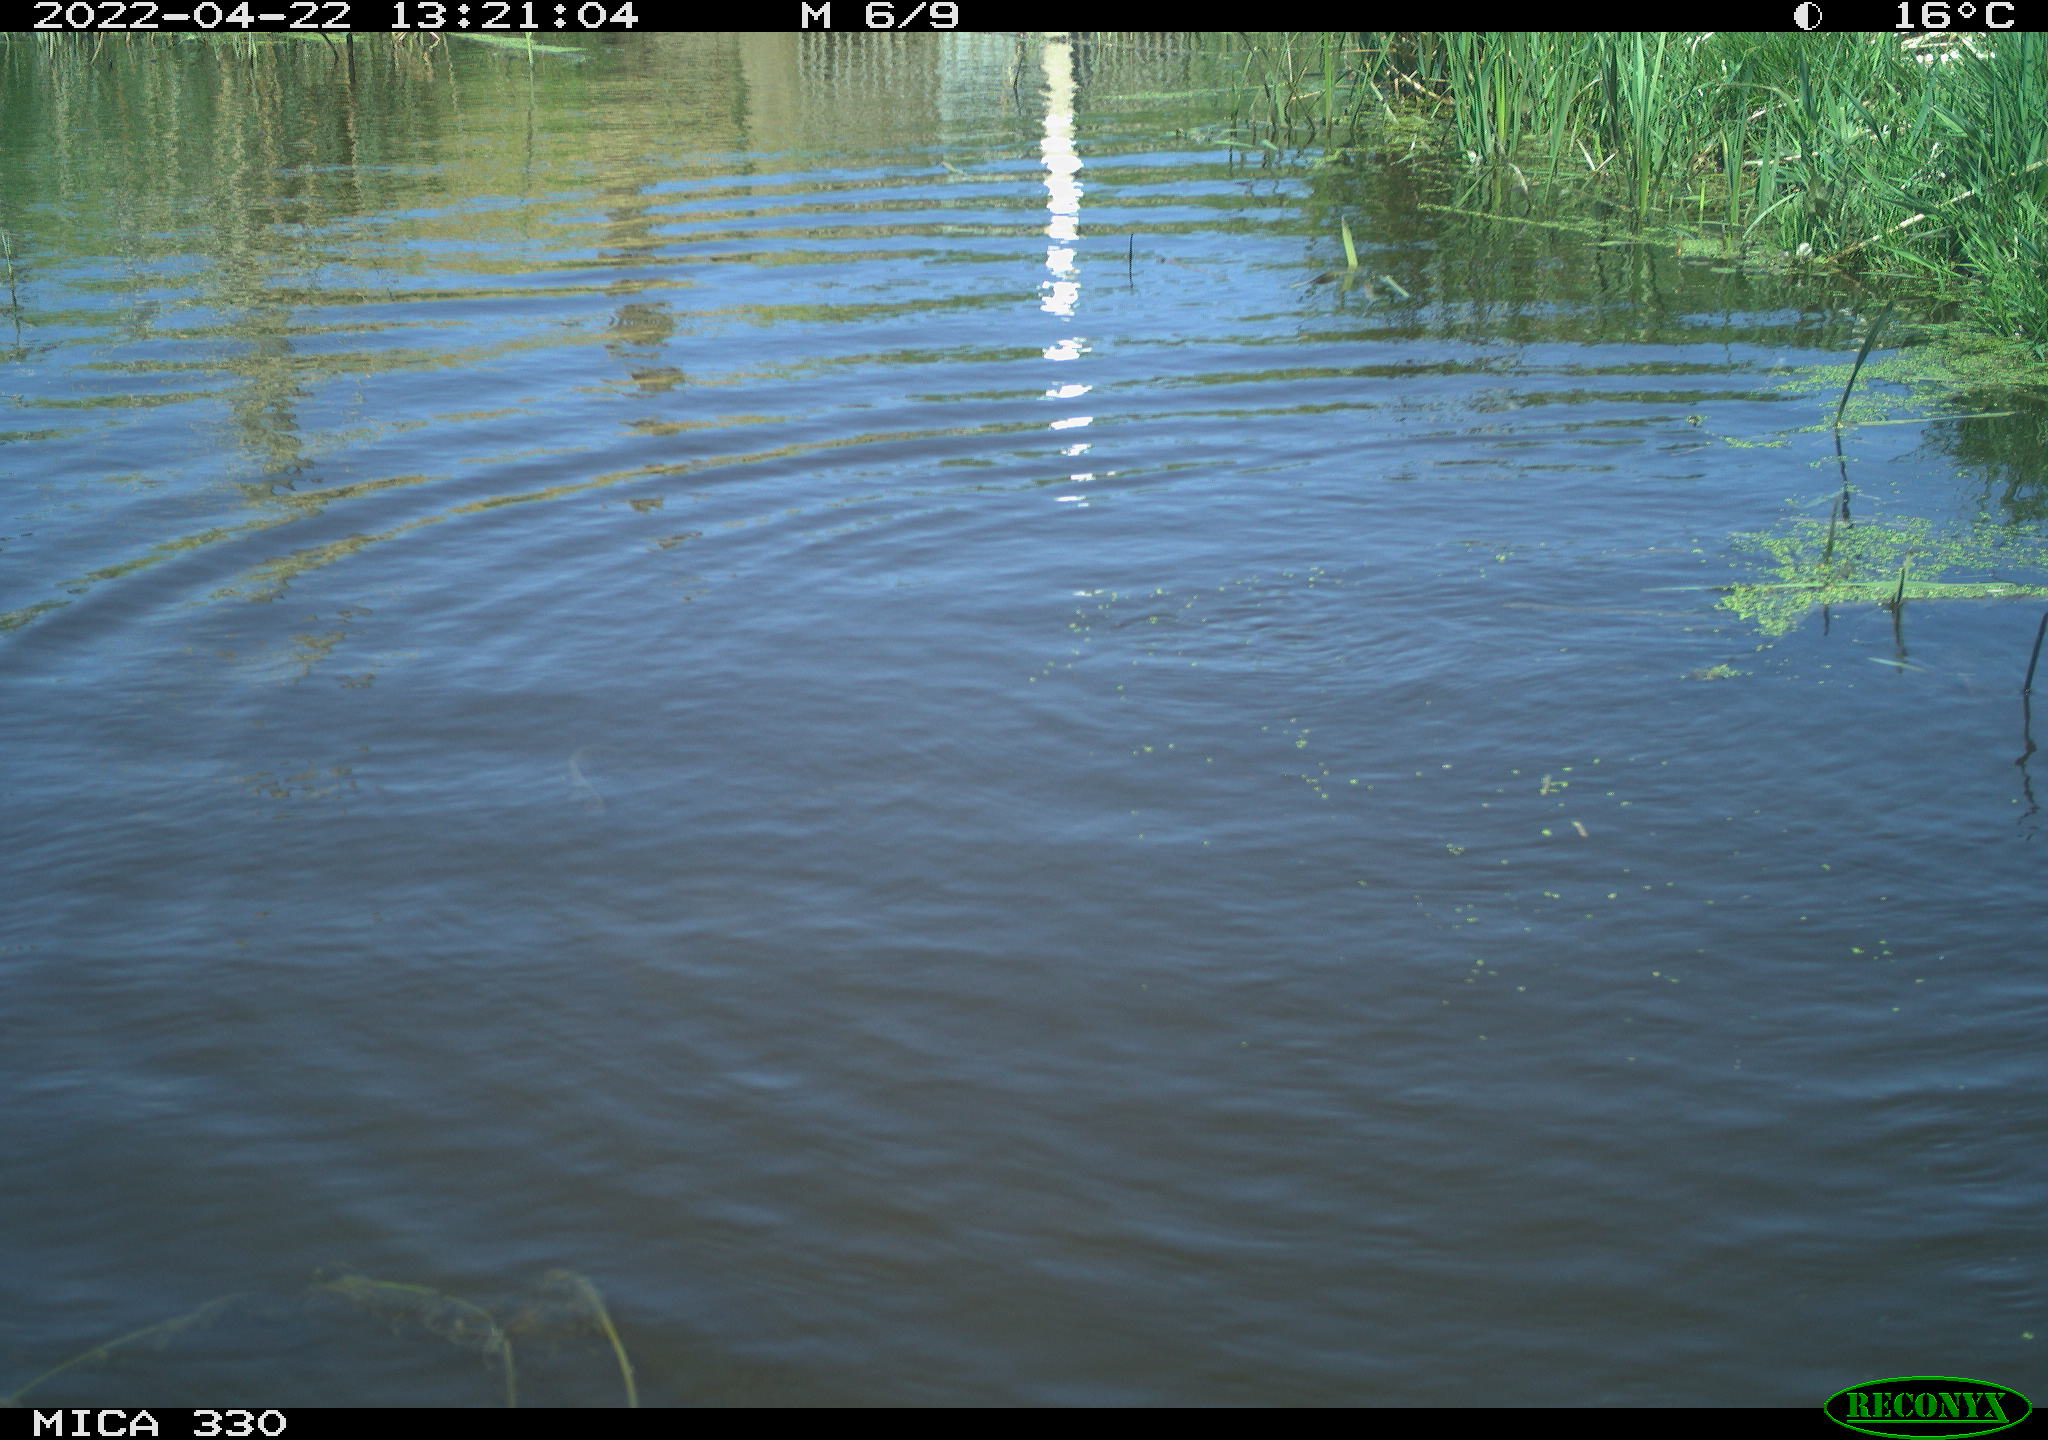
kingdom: Animalia
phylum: Chordata
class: Mammalia
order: Rodentia
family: Cricetidae
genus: Ondatra
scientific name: Ondatra zibethicus
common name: Muskrat
